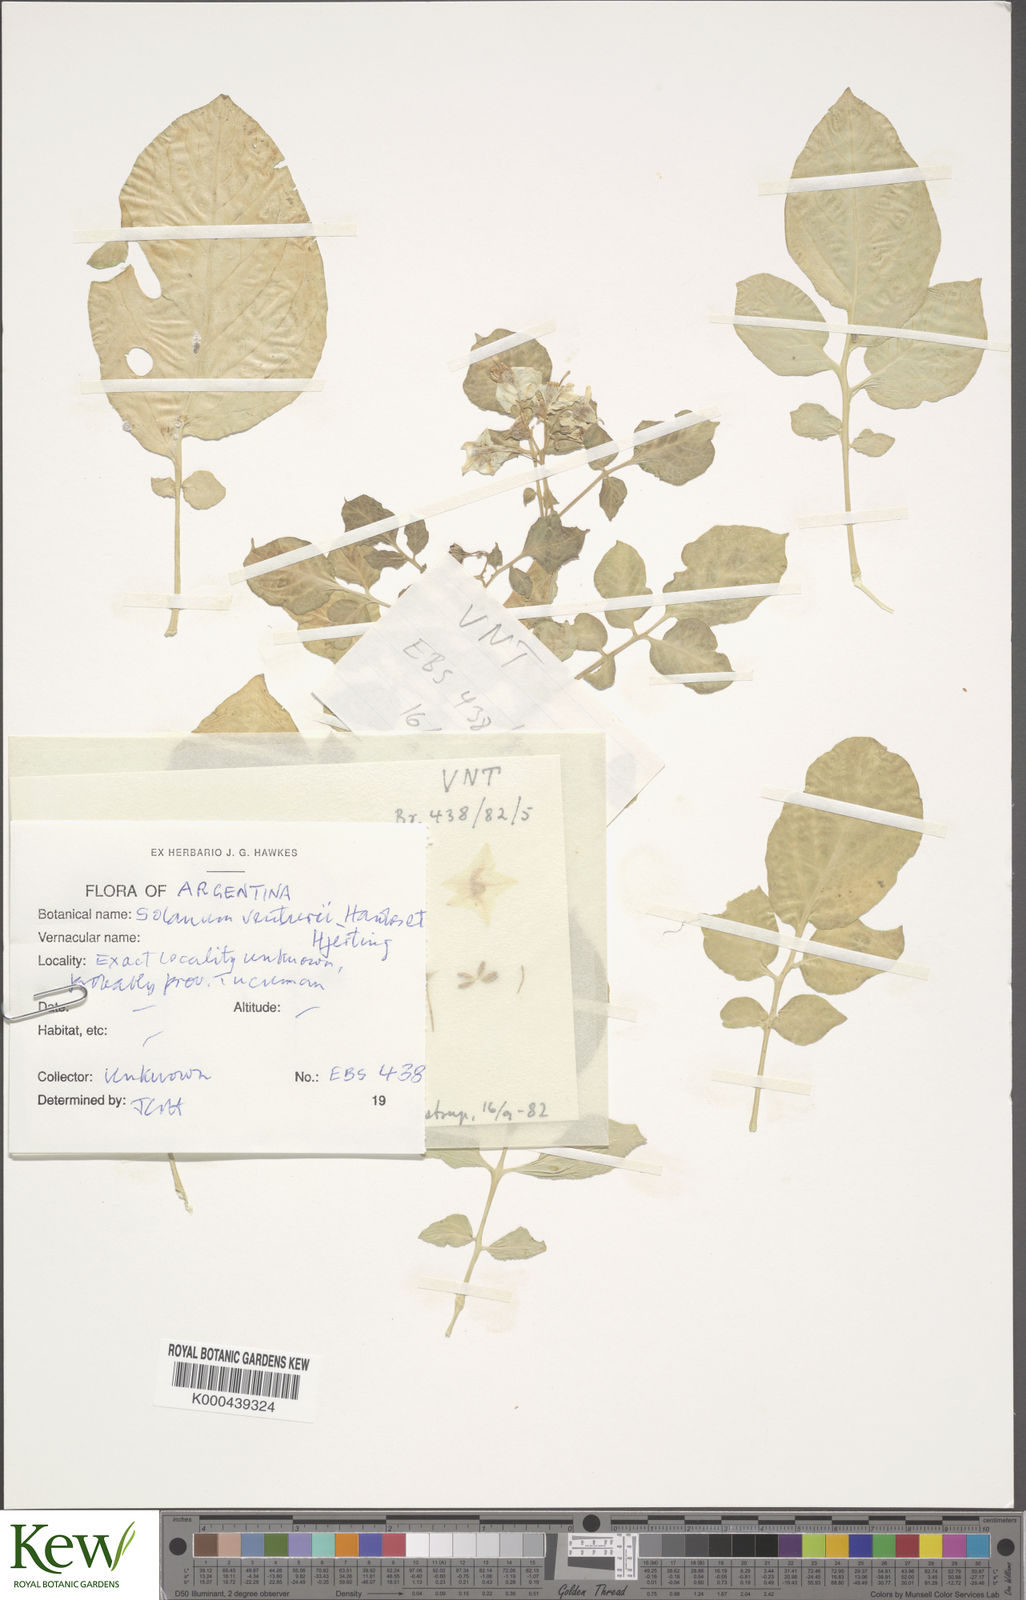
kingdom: Plantae
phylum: Tracheophyta
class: Magnoliopsida
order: Solanales
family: Solanaceae
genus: Solanum
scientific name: Solanum venturii
